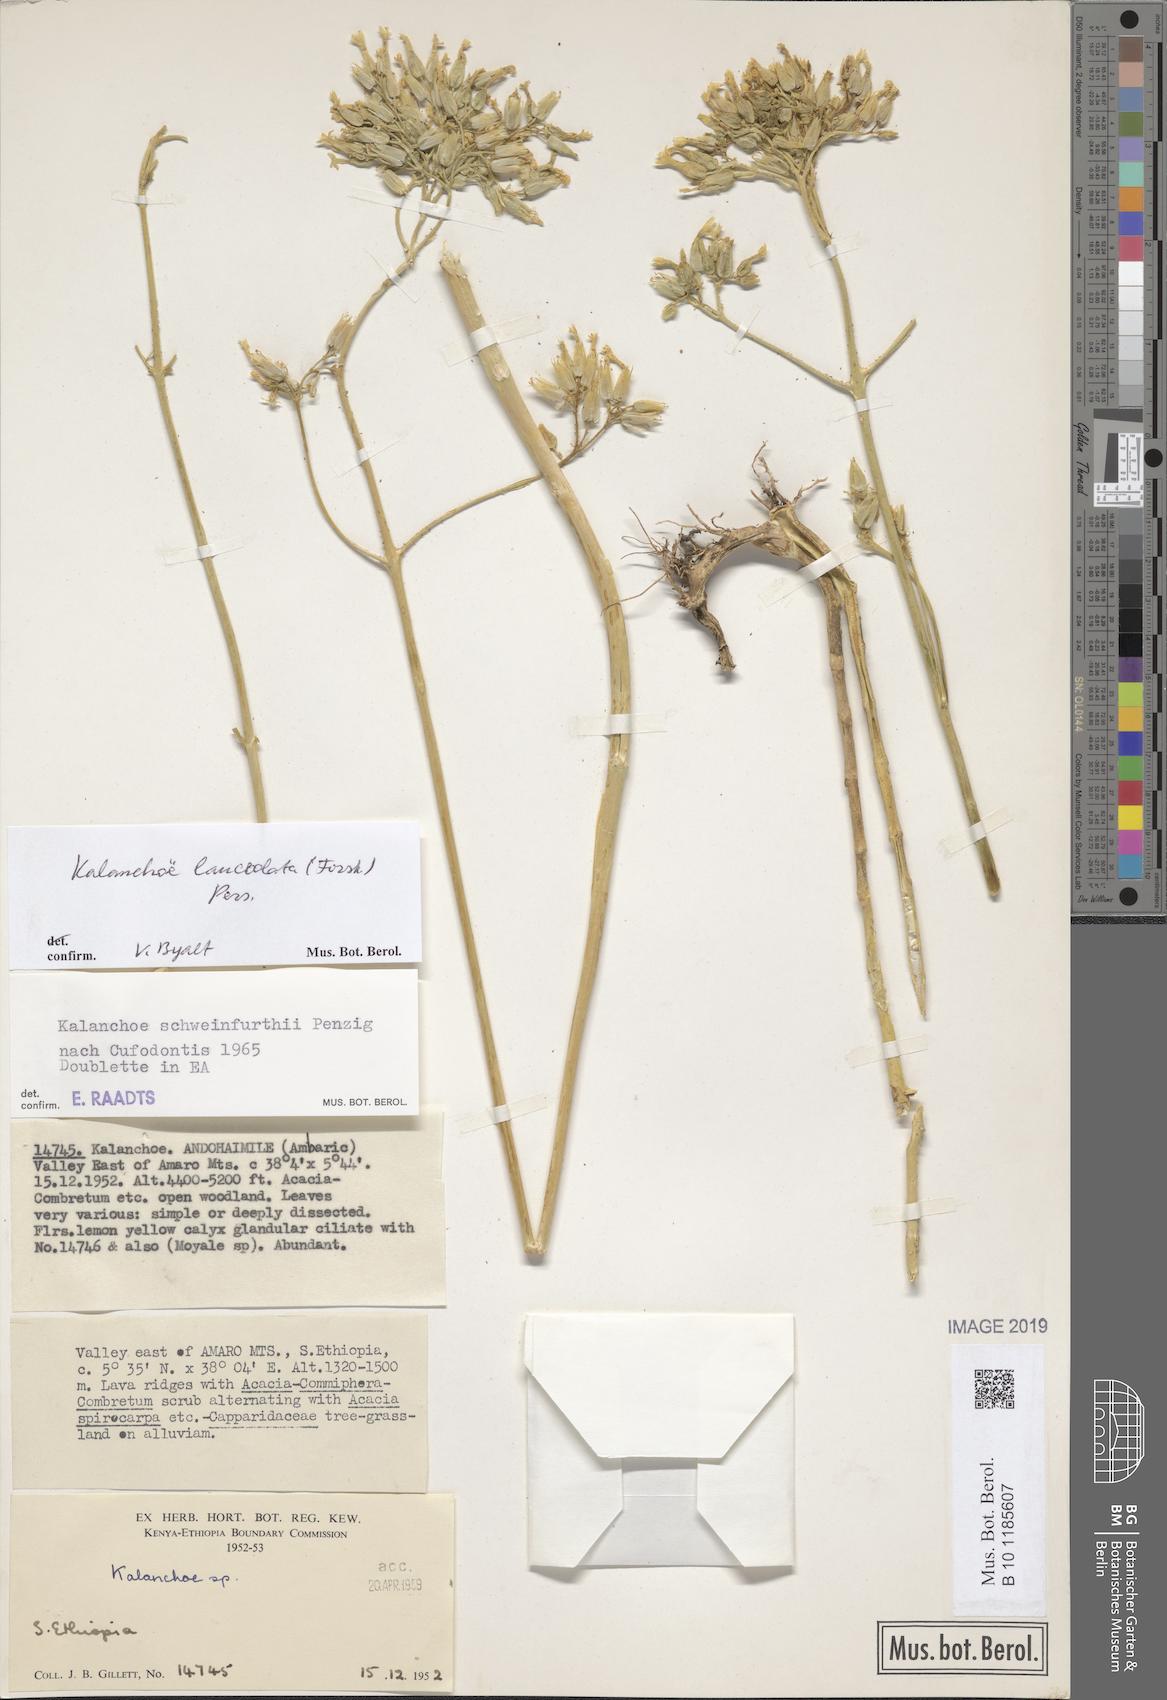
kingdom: Plantae
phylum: Tracheophyta
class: Magnoliopsida
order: Saxifragales
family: Crassulaceae
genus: Kalanchoe
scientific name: Kalanchoe lanceolata
